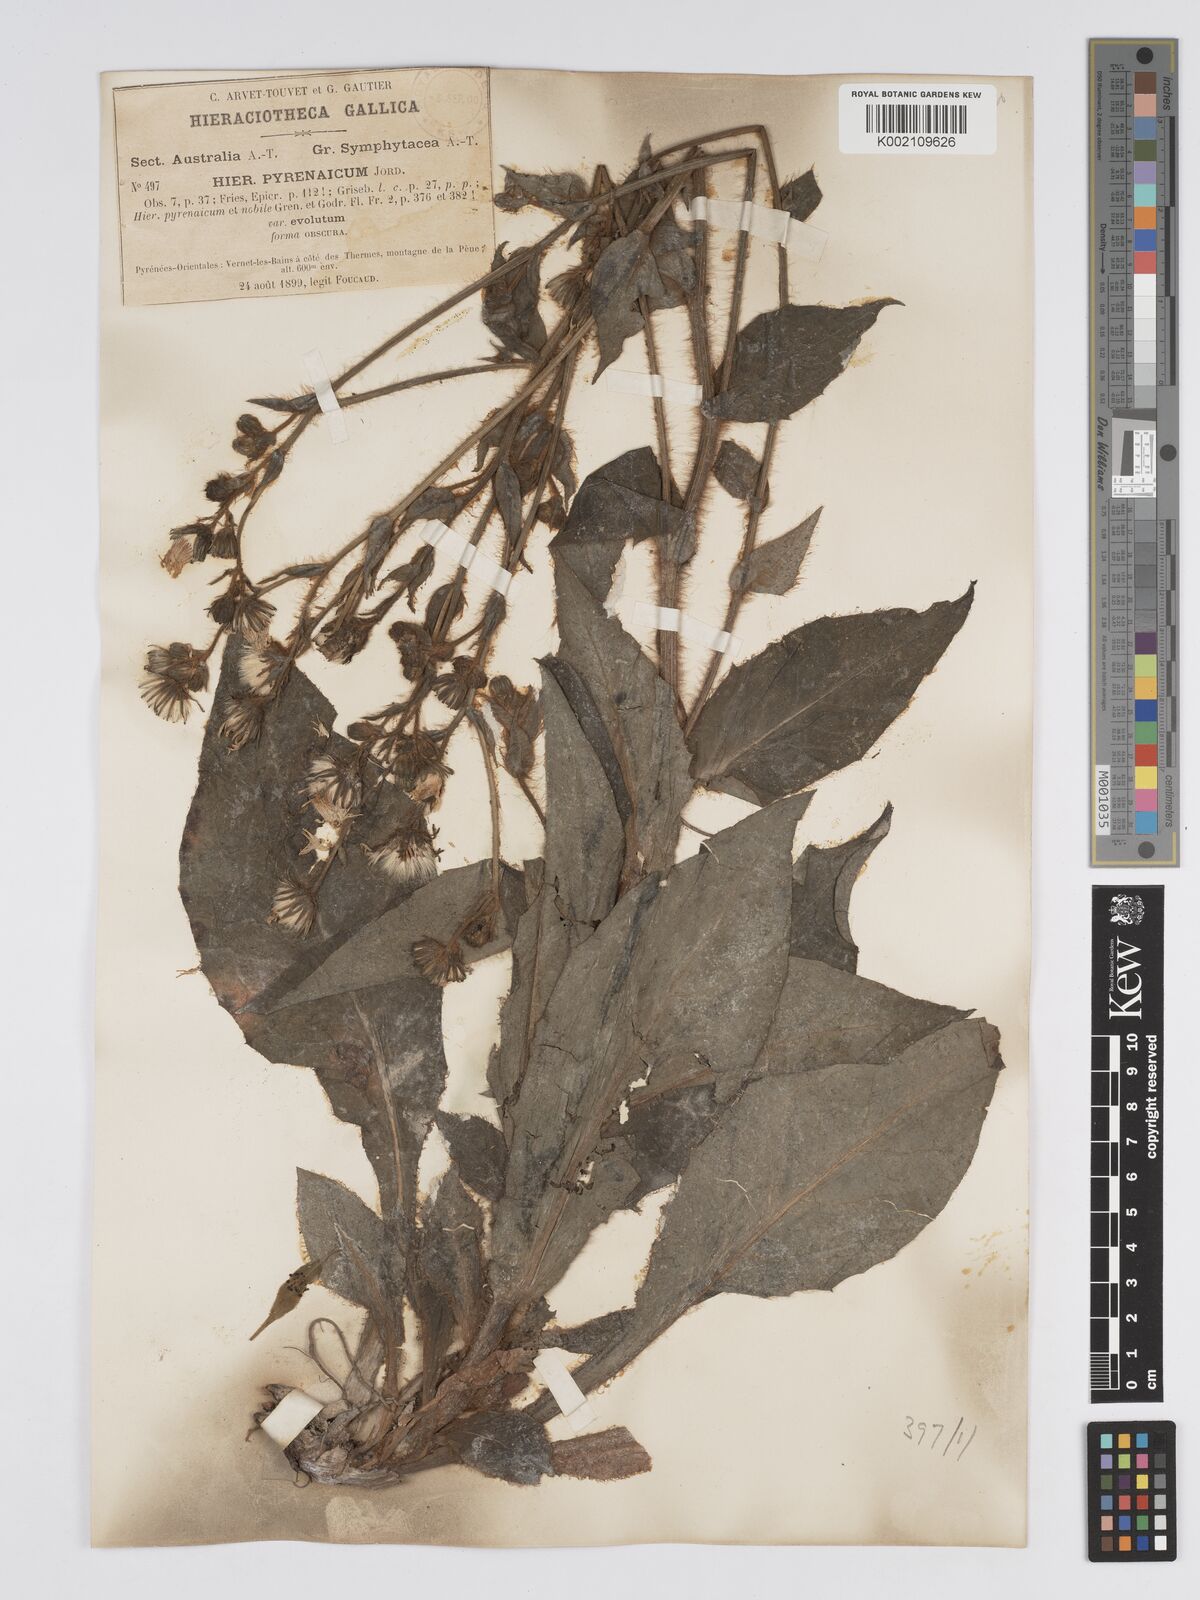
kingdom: Plantae
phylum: Tracheophyta
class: Magnoliopsida
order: Asterales
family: Asteraceae
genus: Hieracium
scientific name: Hieracium nobile
